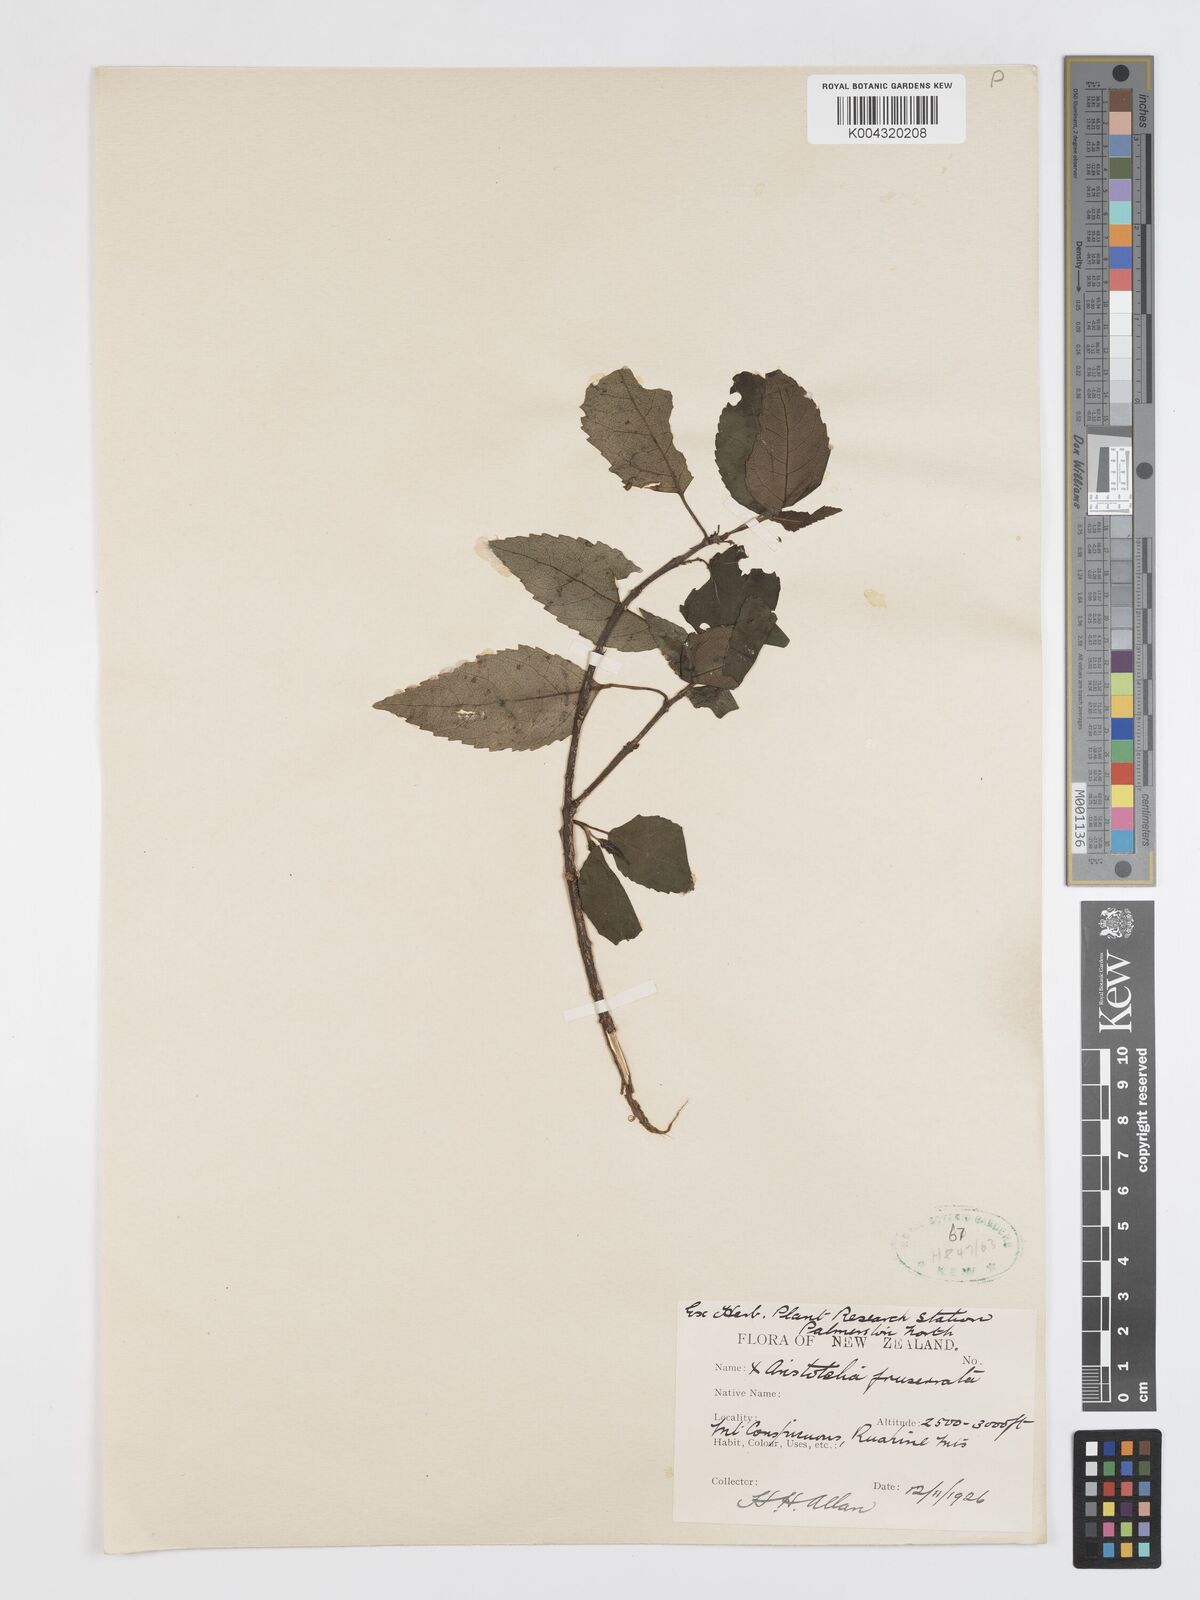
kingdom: Plantae
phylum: Tracheophyta
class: Magnoliopsida
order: Oxalidales
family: Elaeocarpaceae
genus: Aristotelia
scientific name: Aristotelia fruticosa
